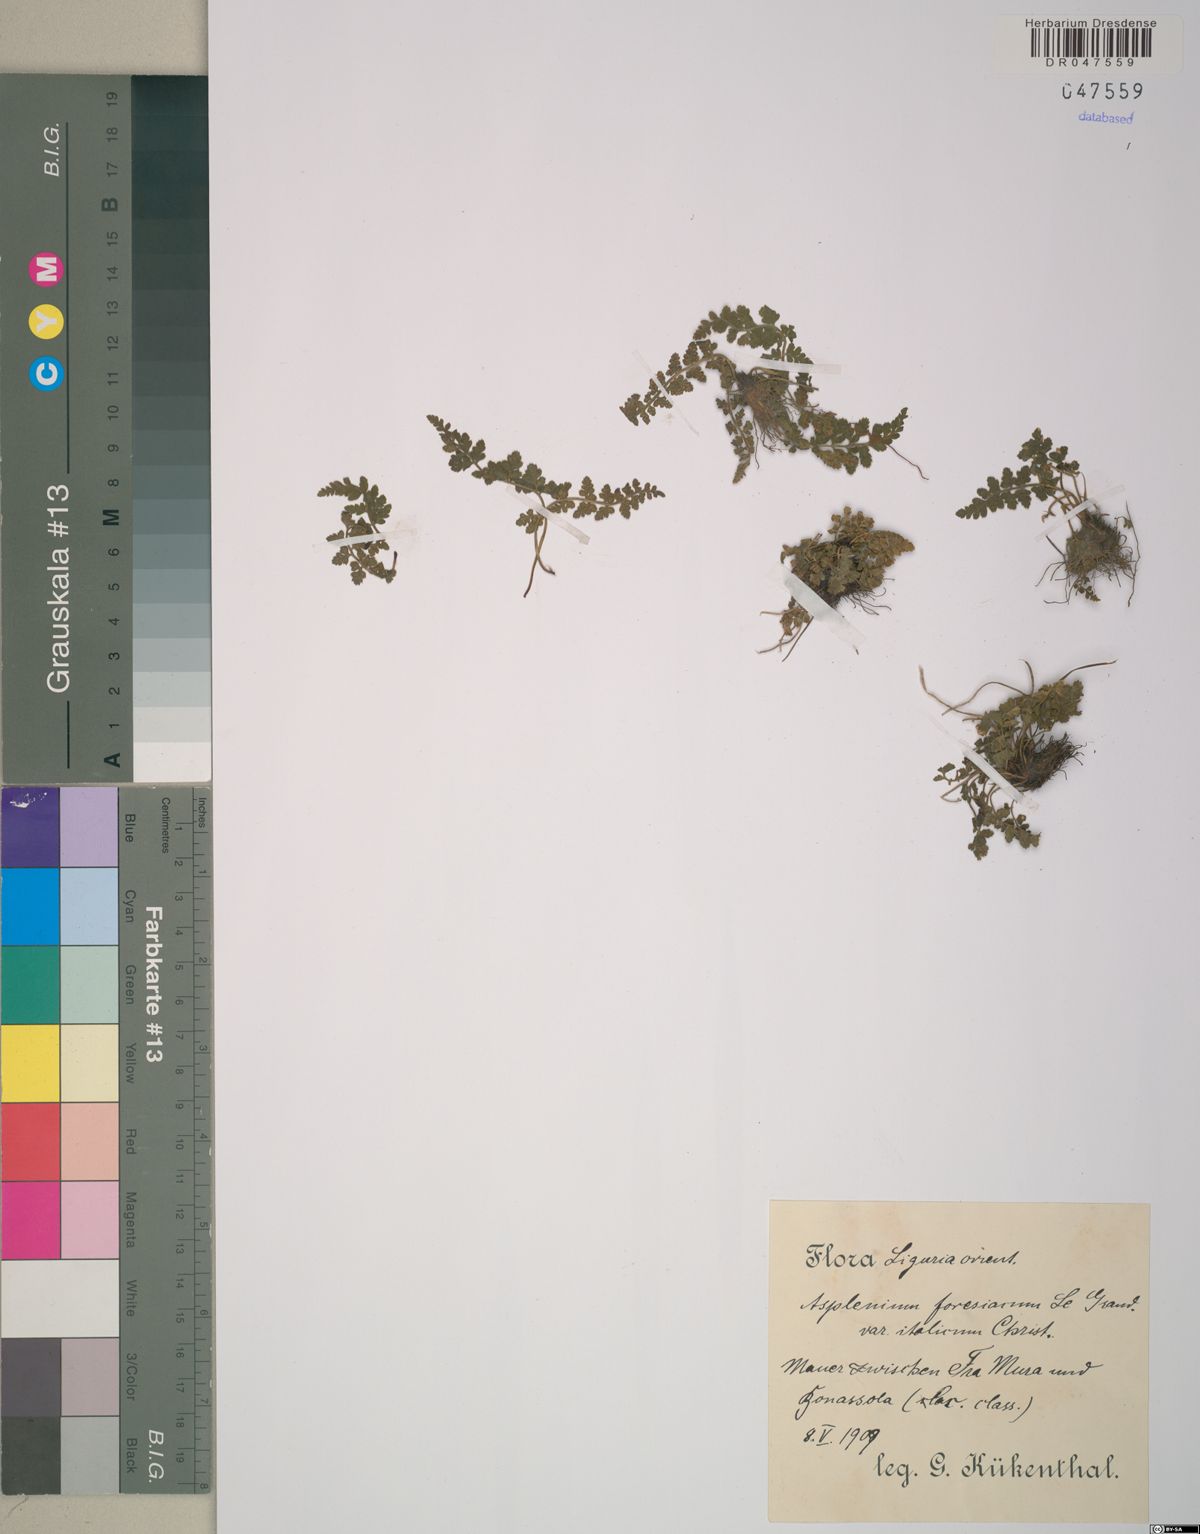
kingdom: Plantae
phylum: Tracheophyta
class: Polypodiopsida
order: Polypodiales
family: Aspleniaceae
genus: Asplenium
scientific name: Asplenium foreziense
